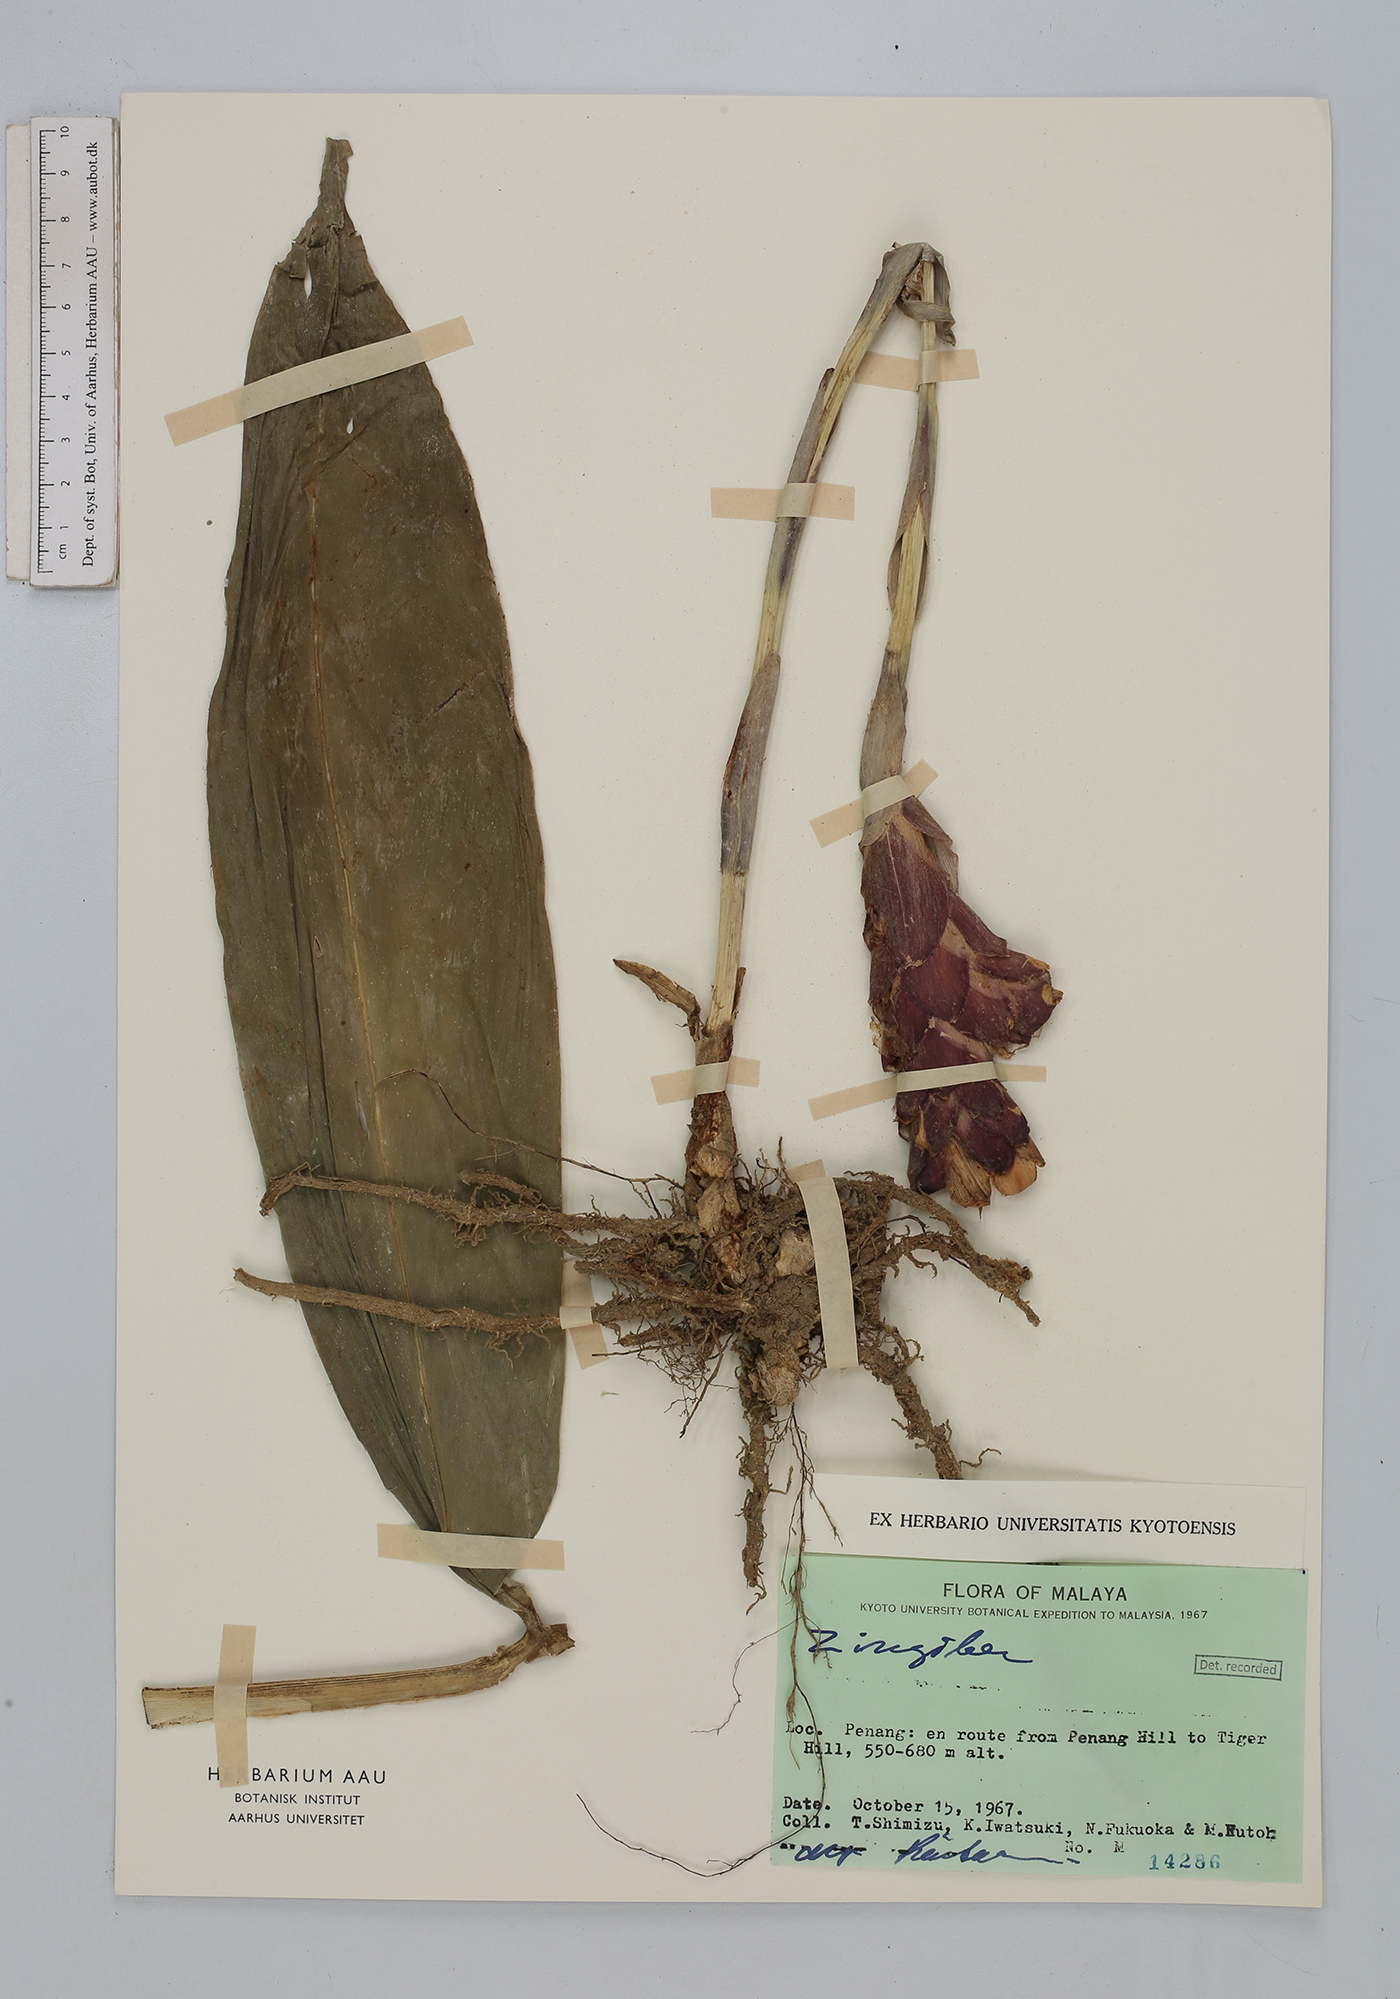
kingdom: Plantae
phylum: Tracheophyta
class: Liliopsida
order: Zingiberales
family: Zingiberaceae
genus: Zingiber
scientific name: Zingiber
